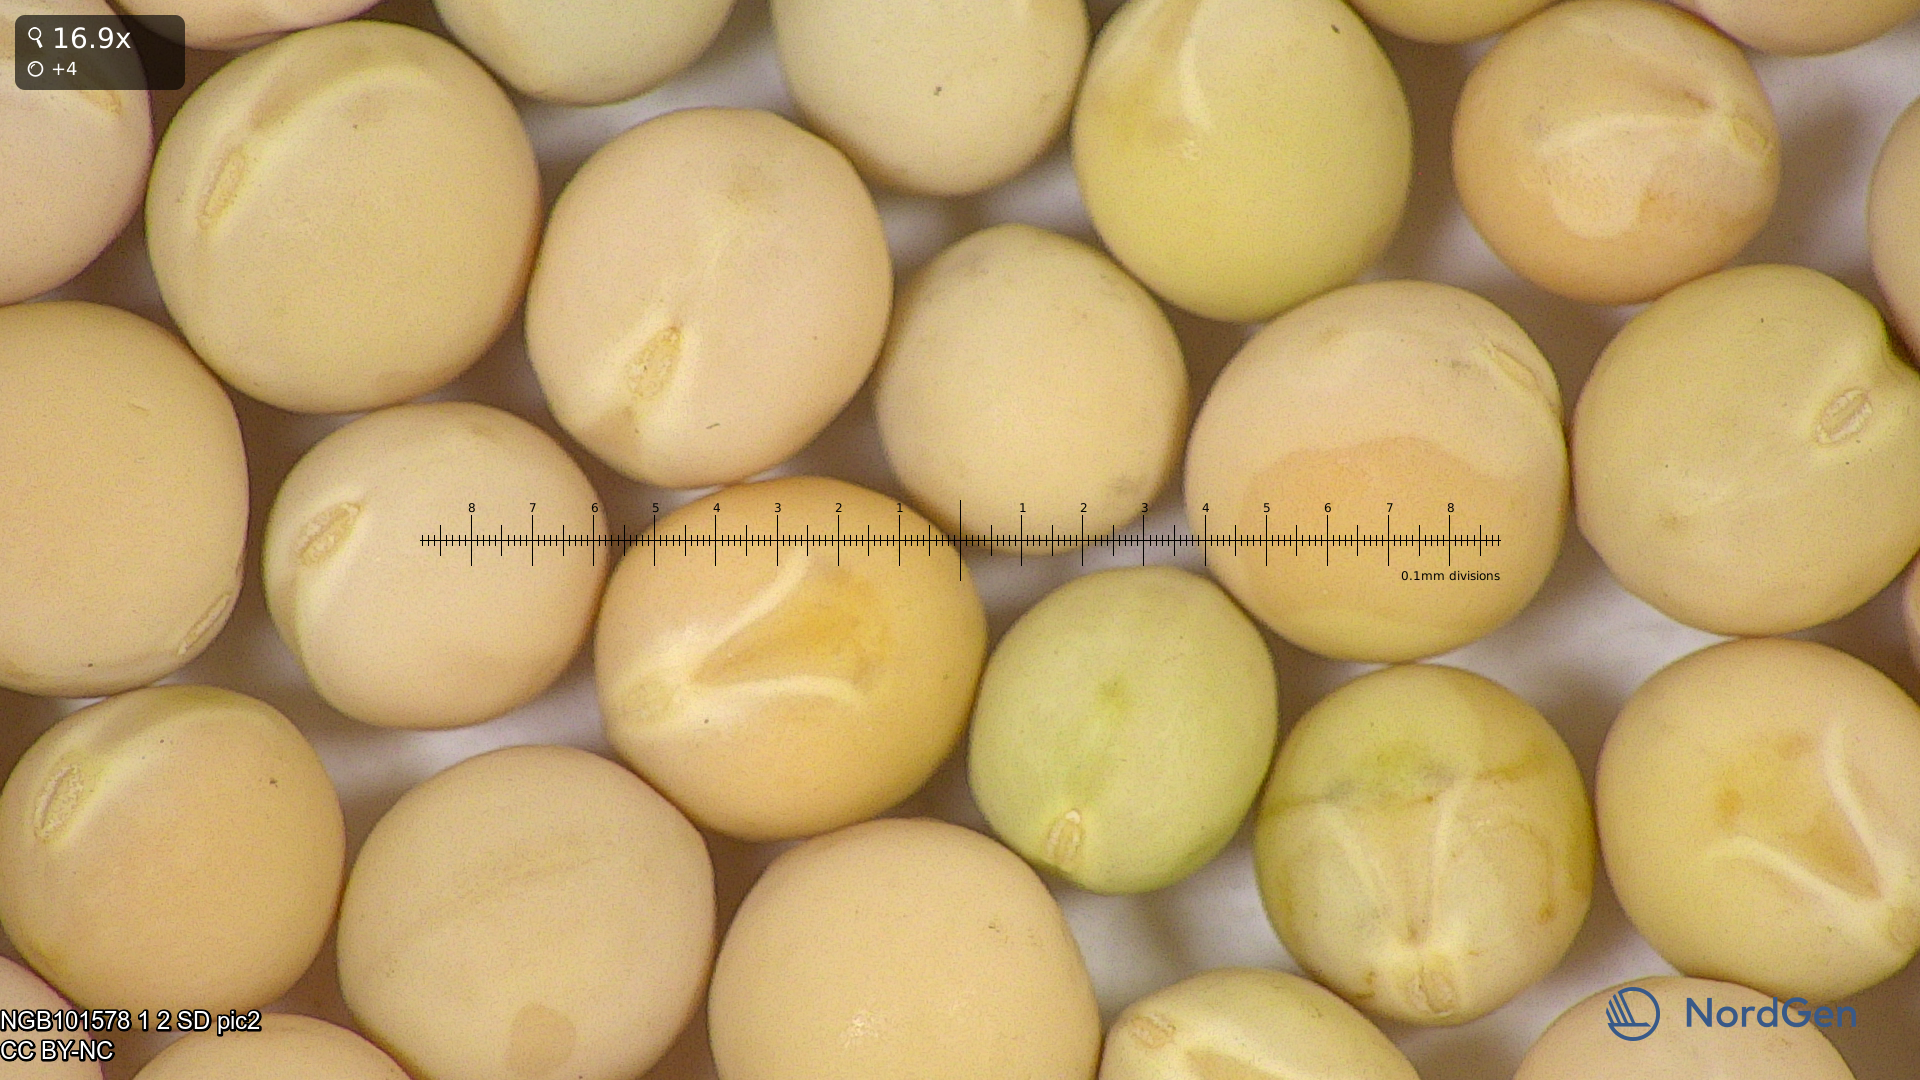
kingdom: Plantae
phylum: Tracheophyta
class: Magnoliopsida
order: Fabales
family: Fabaceae
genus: Lathyrus
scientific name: Lathyrus oleraceus
